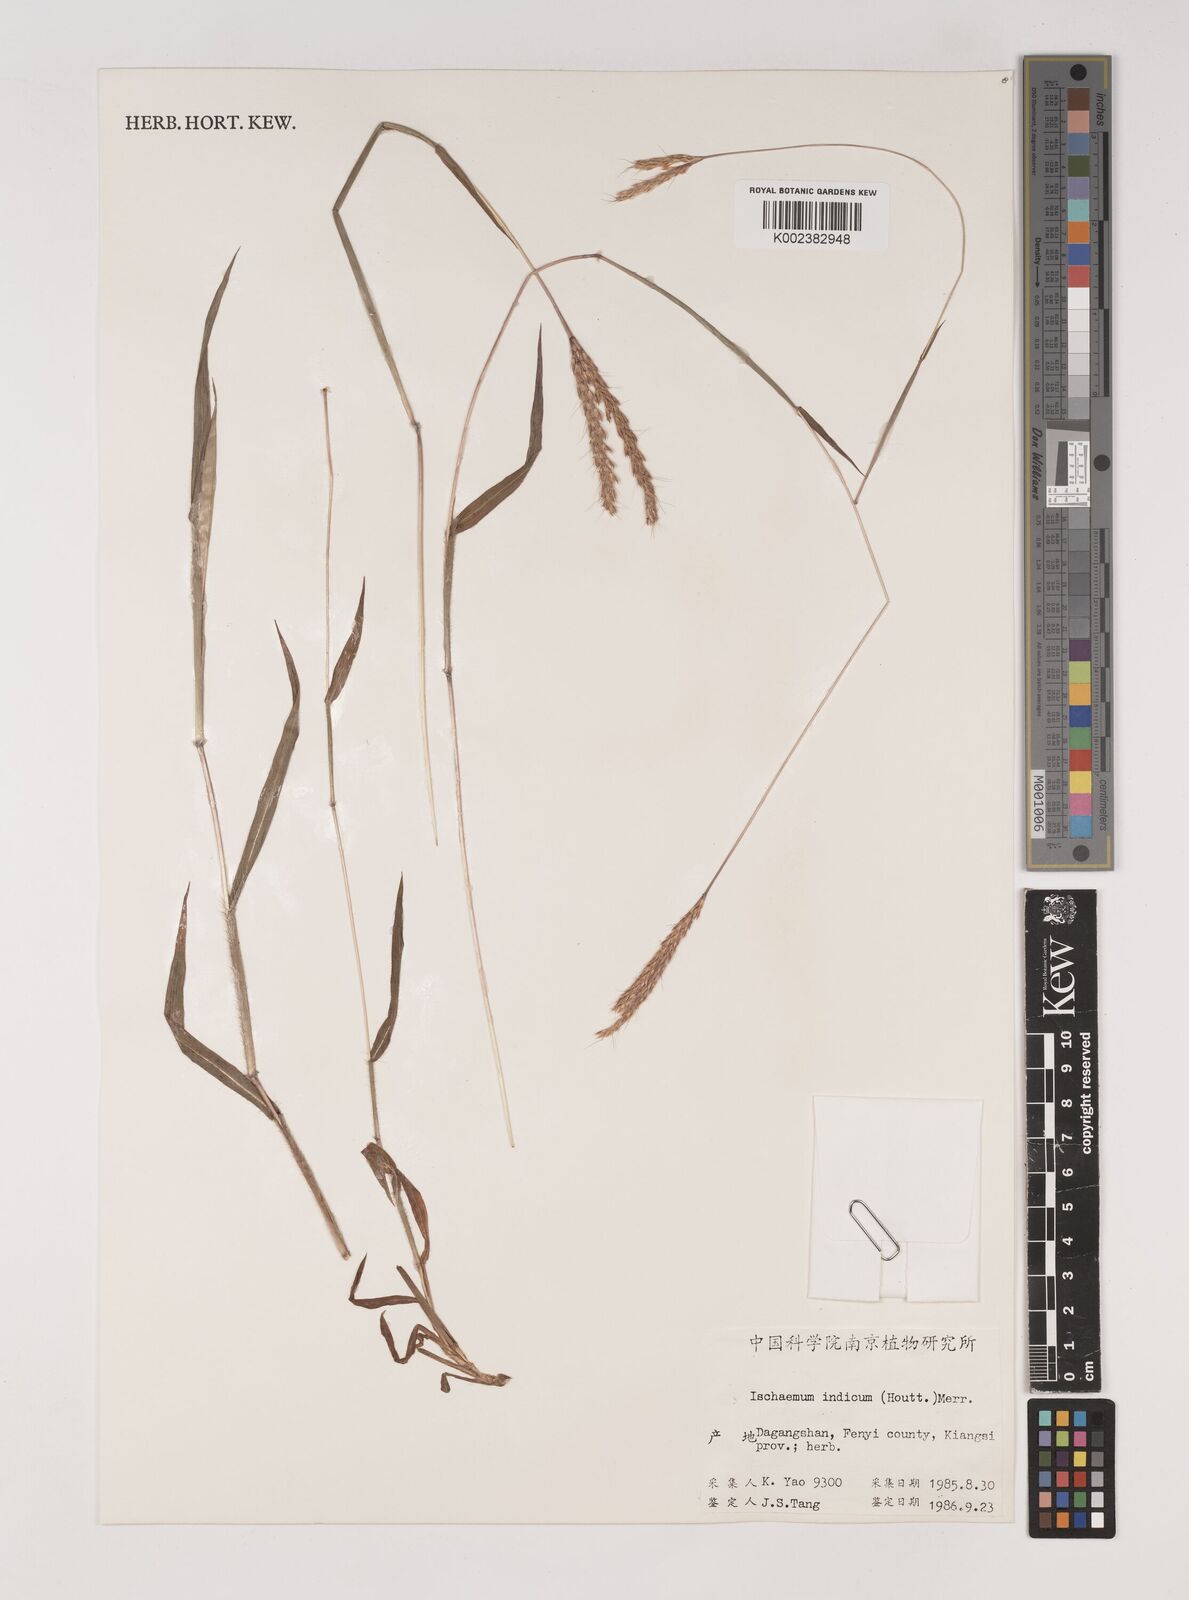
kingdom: Plantae
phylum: Tracheophyta
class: Liliopsida
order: Poales
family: Poaceae
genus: Ischaemum
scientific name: Ischaemum ciliare
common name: Grass
